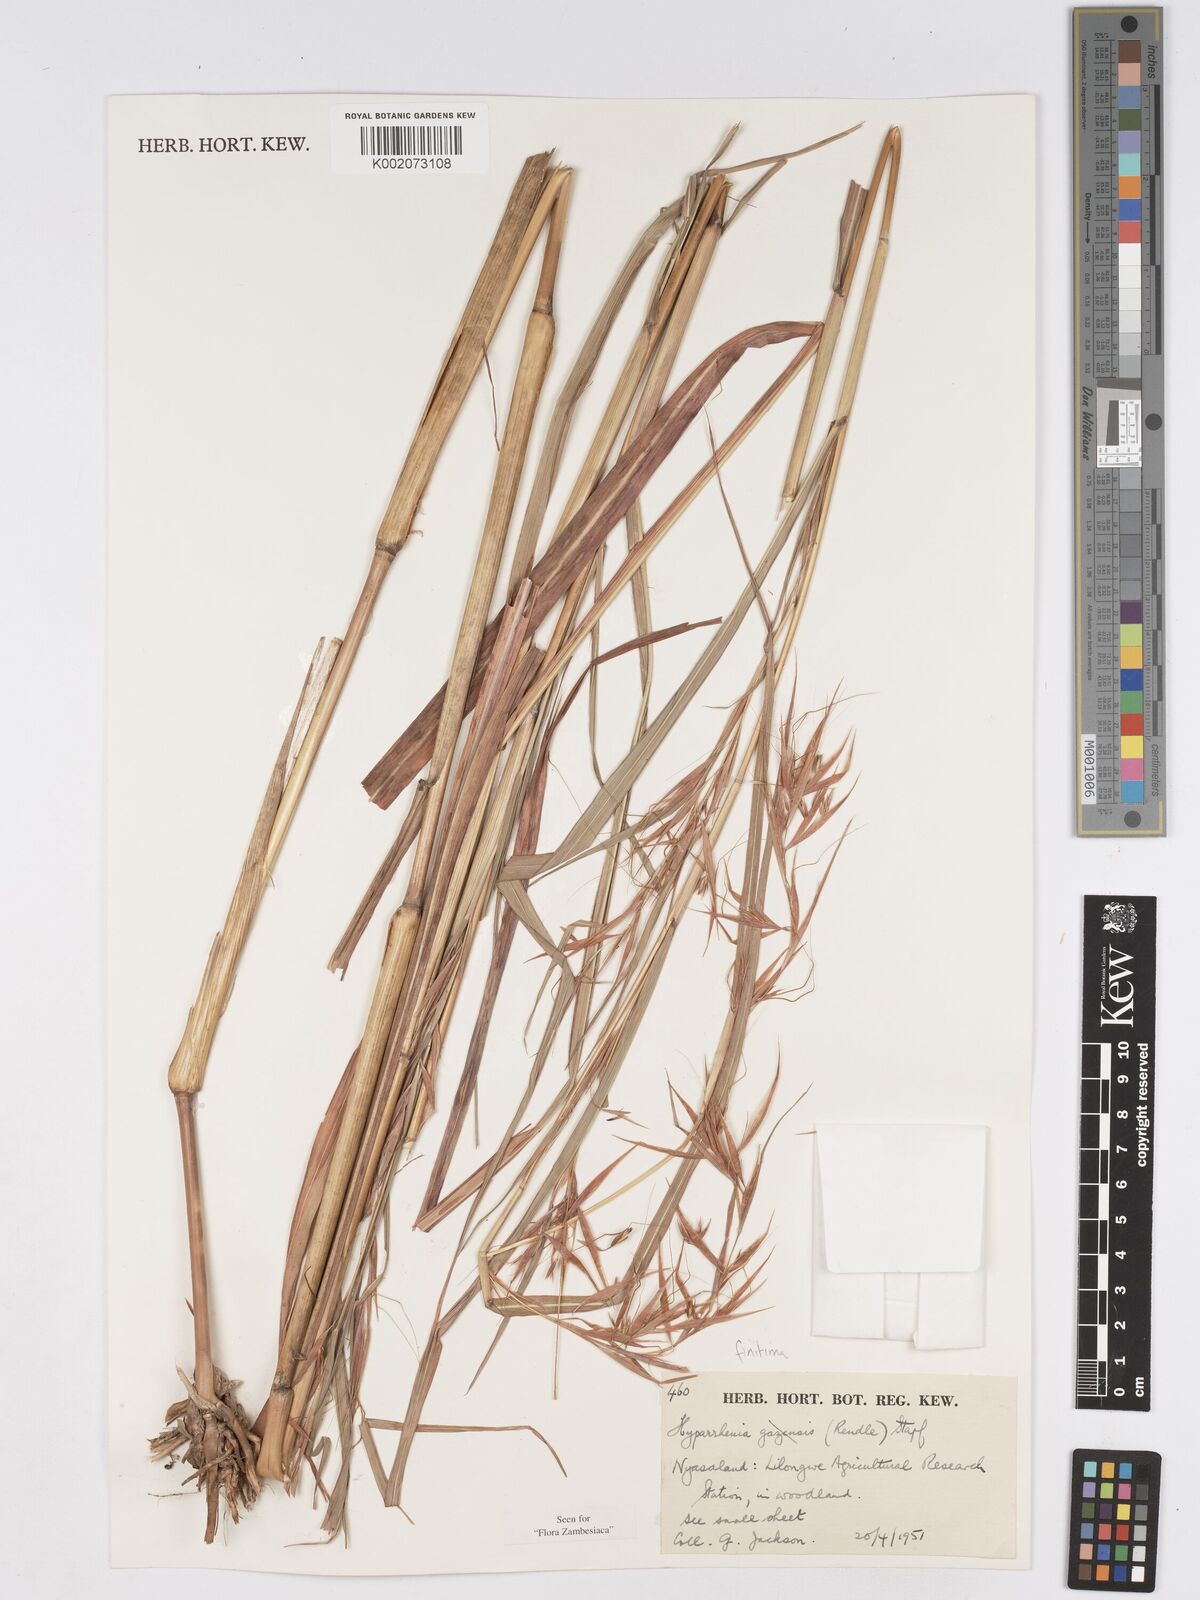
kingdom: Plantae
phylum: Tracheophyta
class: Liliopsida
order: Poales
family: Poaceae
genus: Hyparrhenia
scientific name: Hyparrhenia finitima
